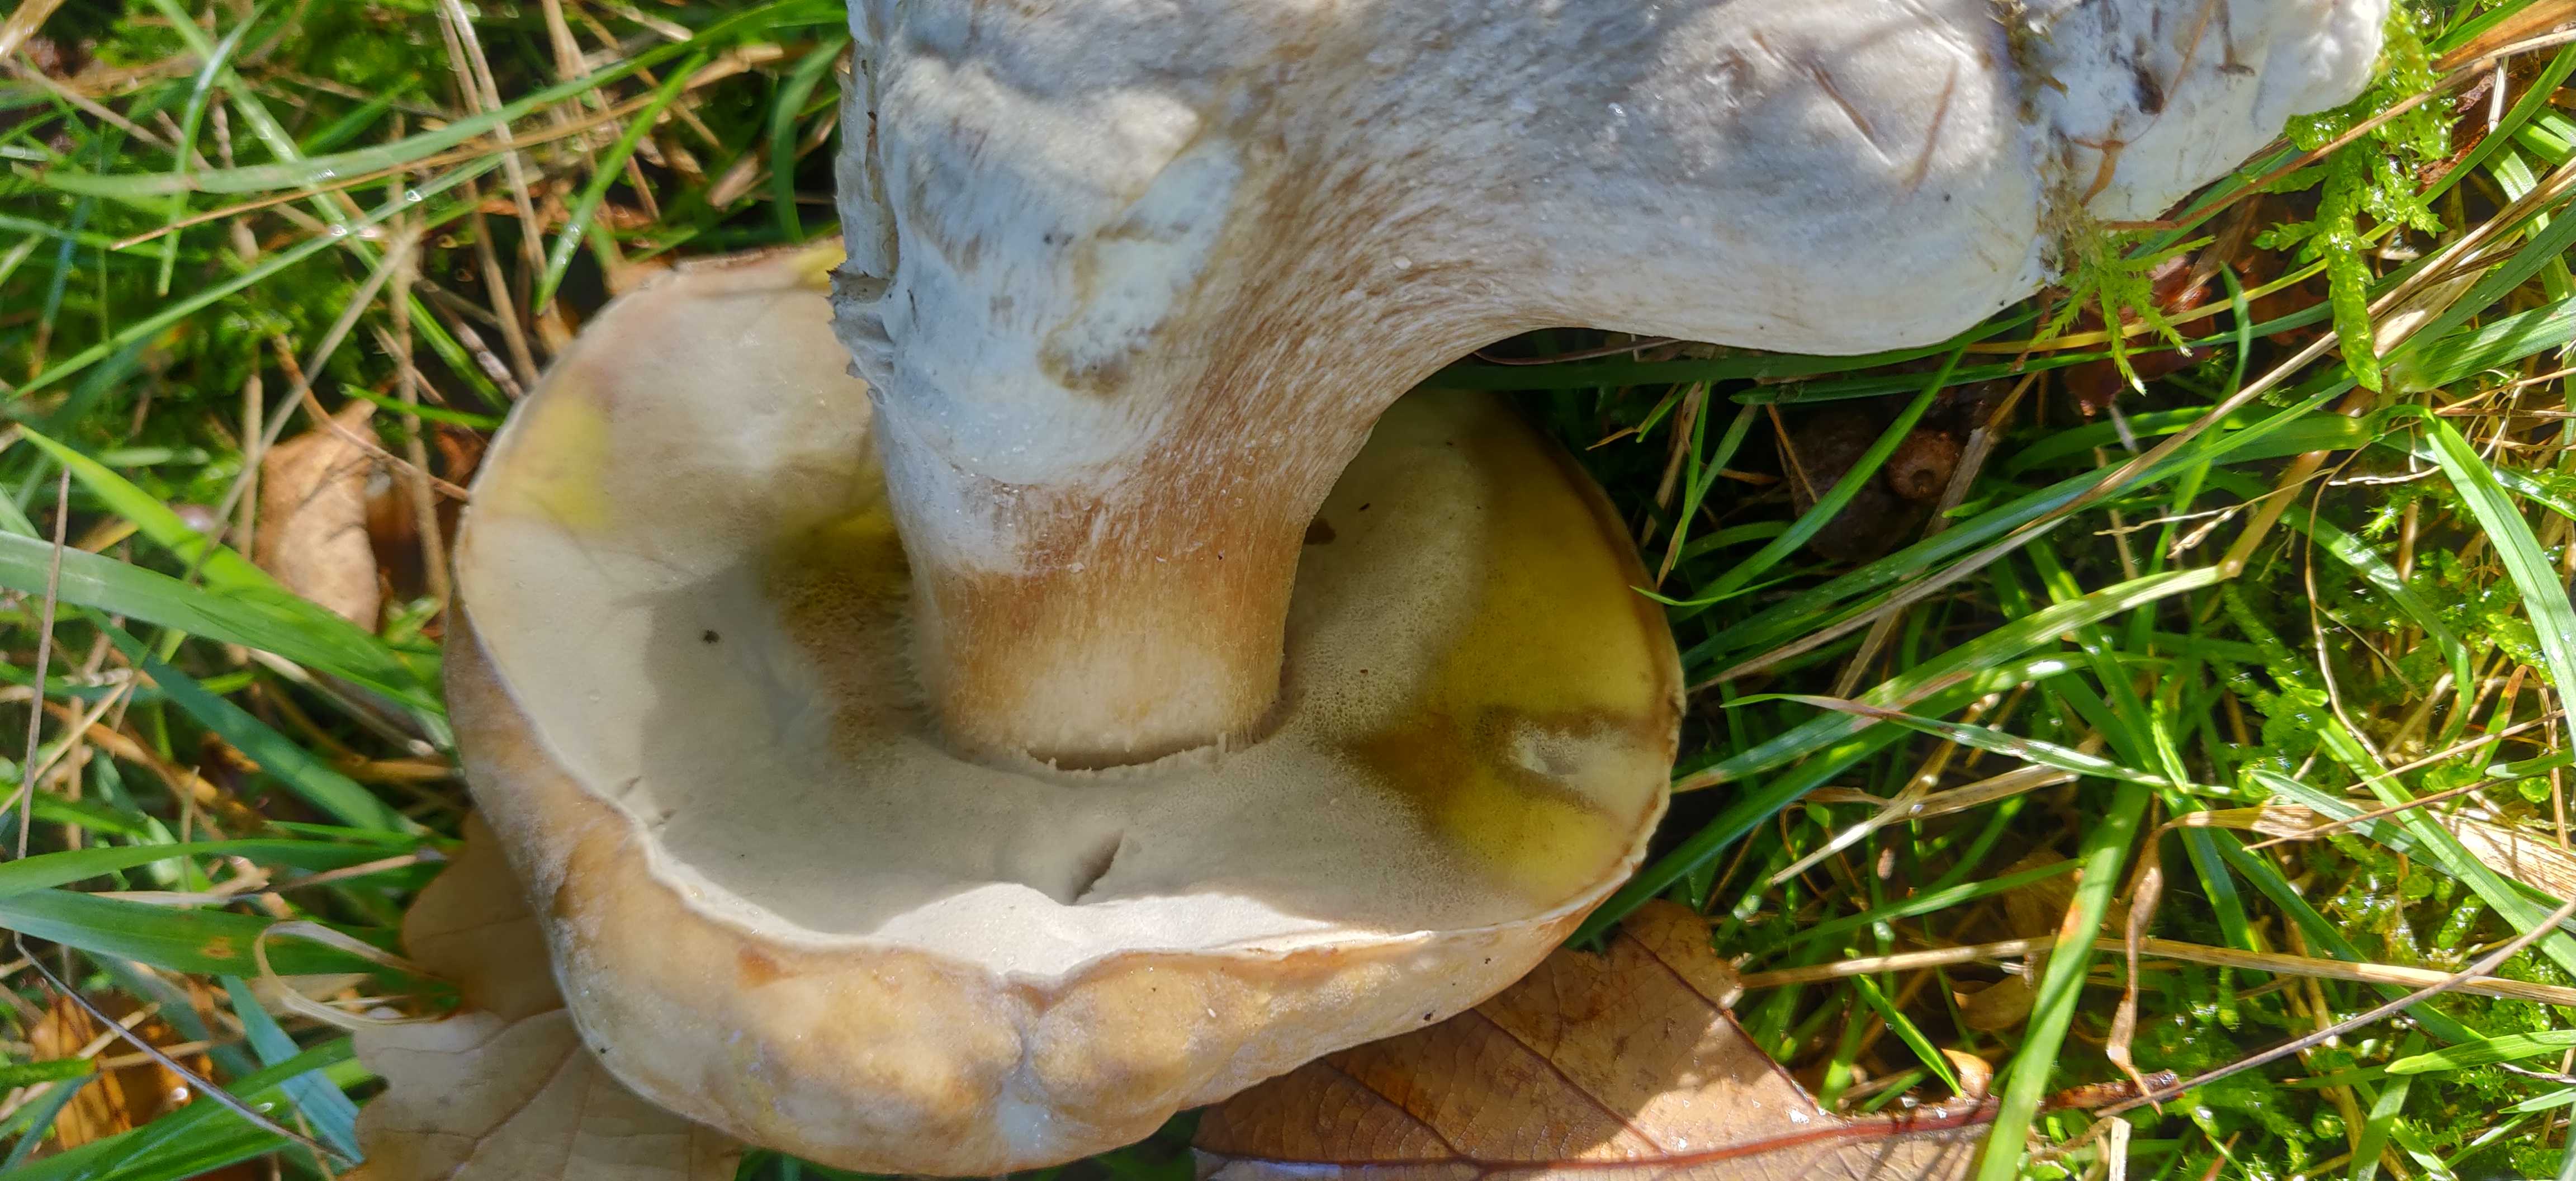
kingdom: Fungi
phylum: Ascomycota
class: Sordariomycetes
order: Hypocreales
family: Hypocreaceae
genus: Hypomyces
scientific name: Hypomyces chrysospermus
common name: gulskimmel-snylteskorpe
